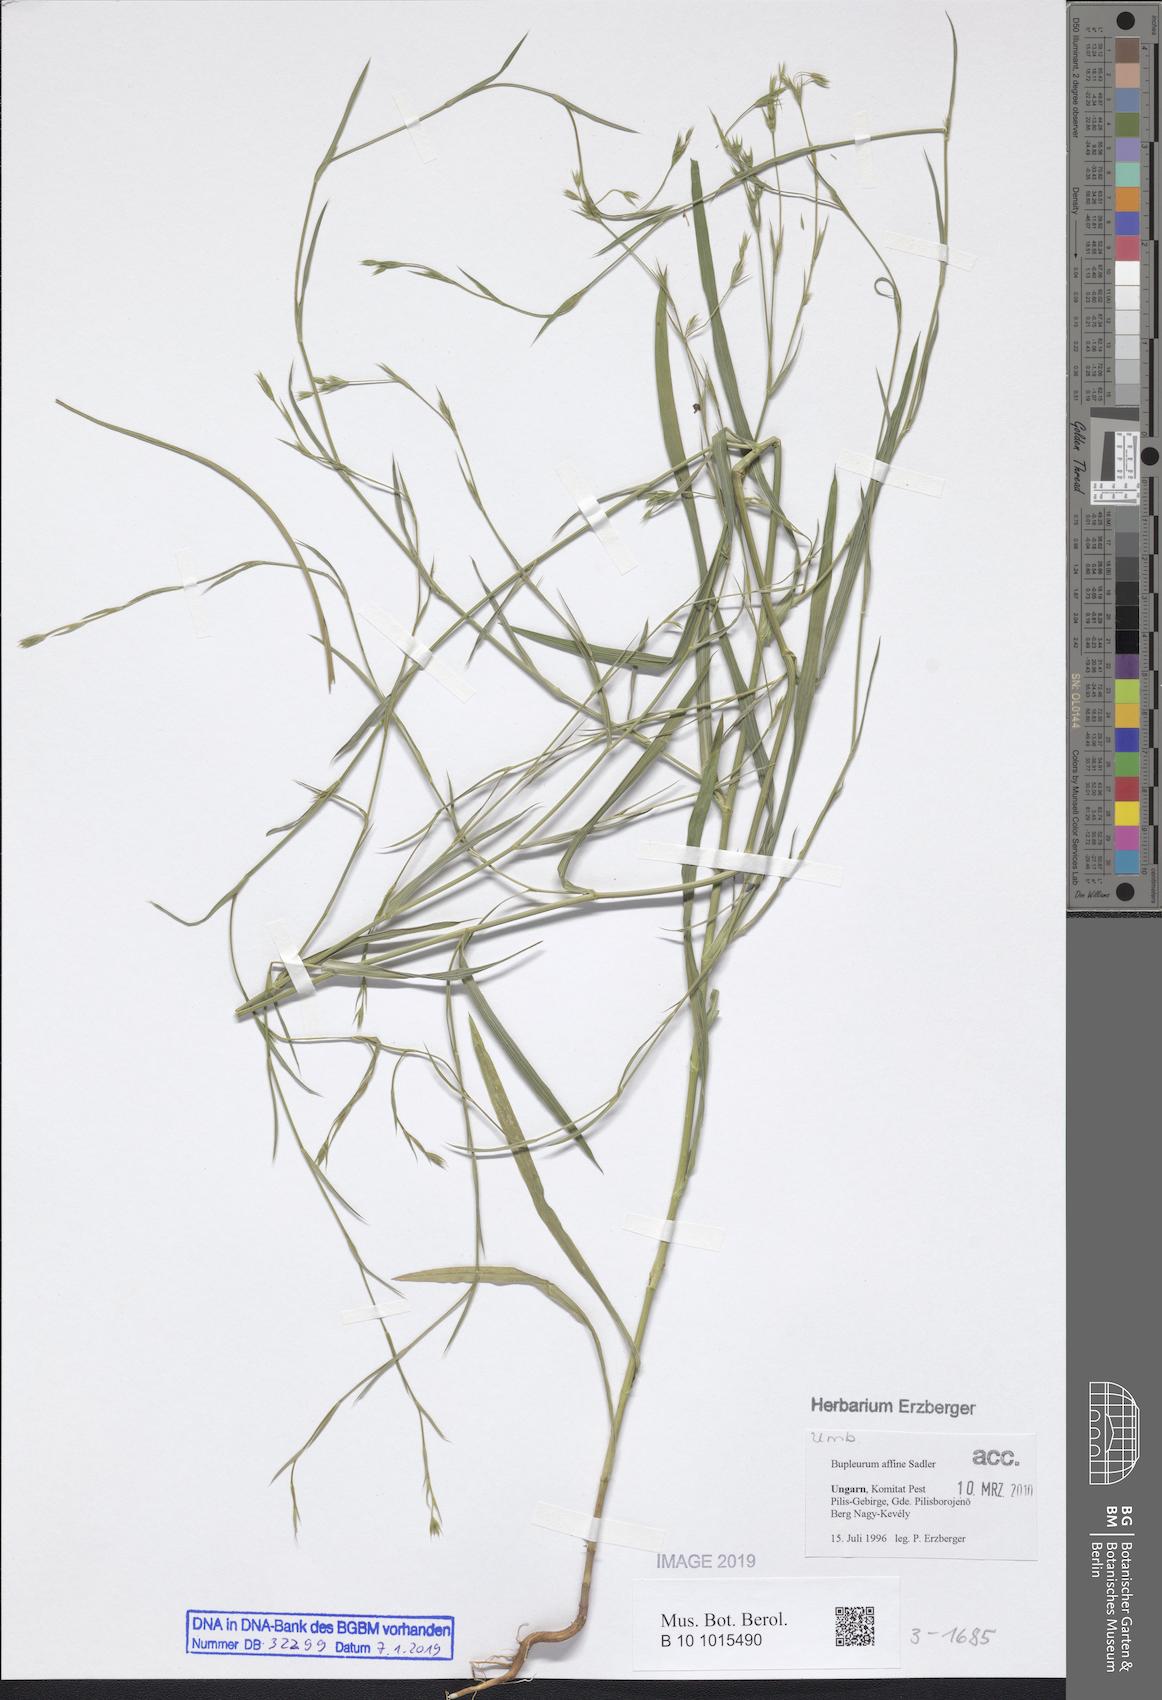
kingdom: Plantae
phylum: Tracheophyta
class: Magnoliopsida
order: Apiales
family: Apiaceae
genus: Bupleurum
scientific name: Bupleurum affine
